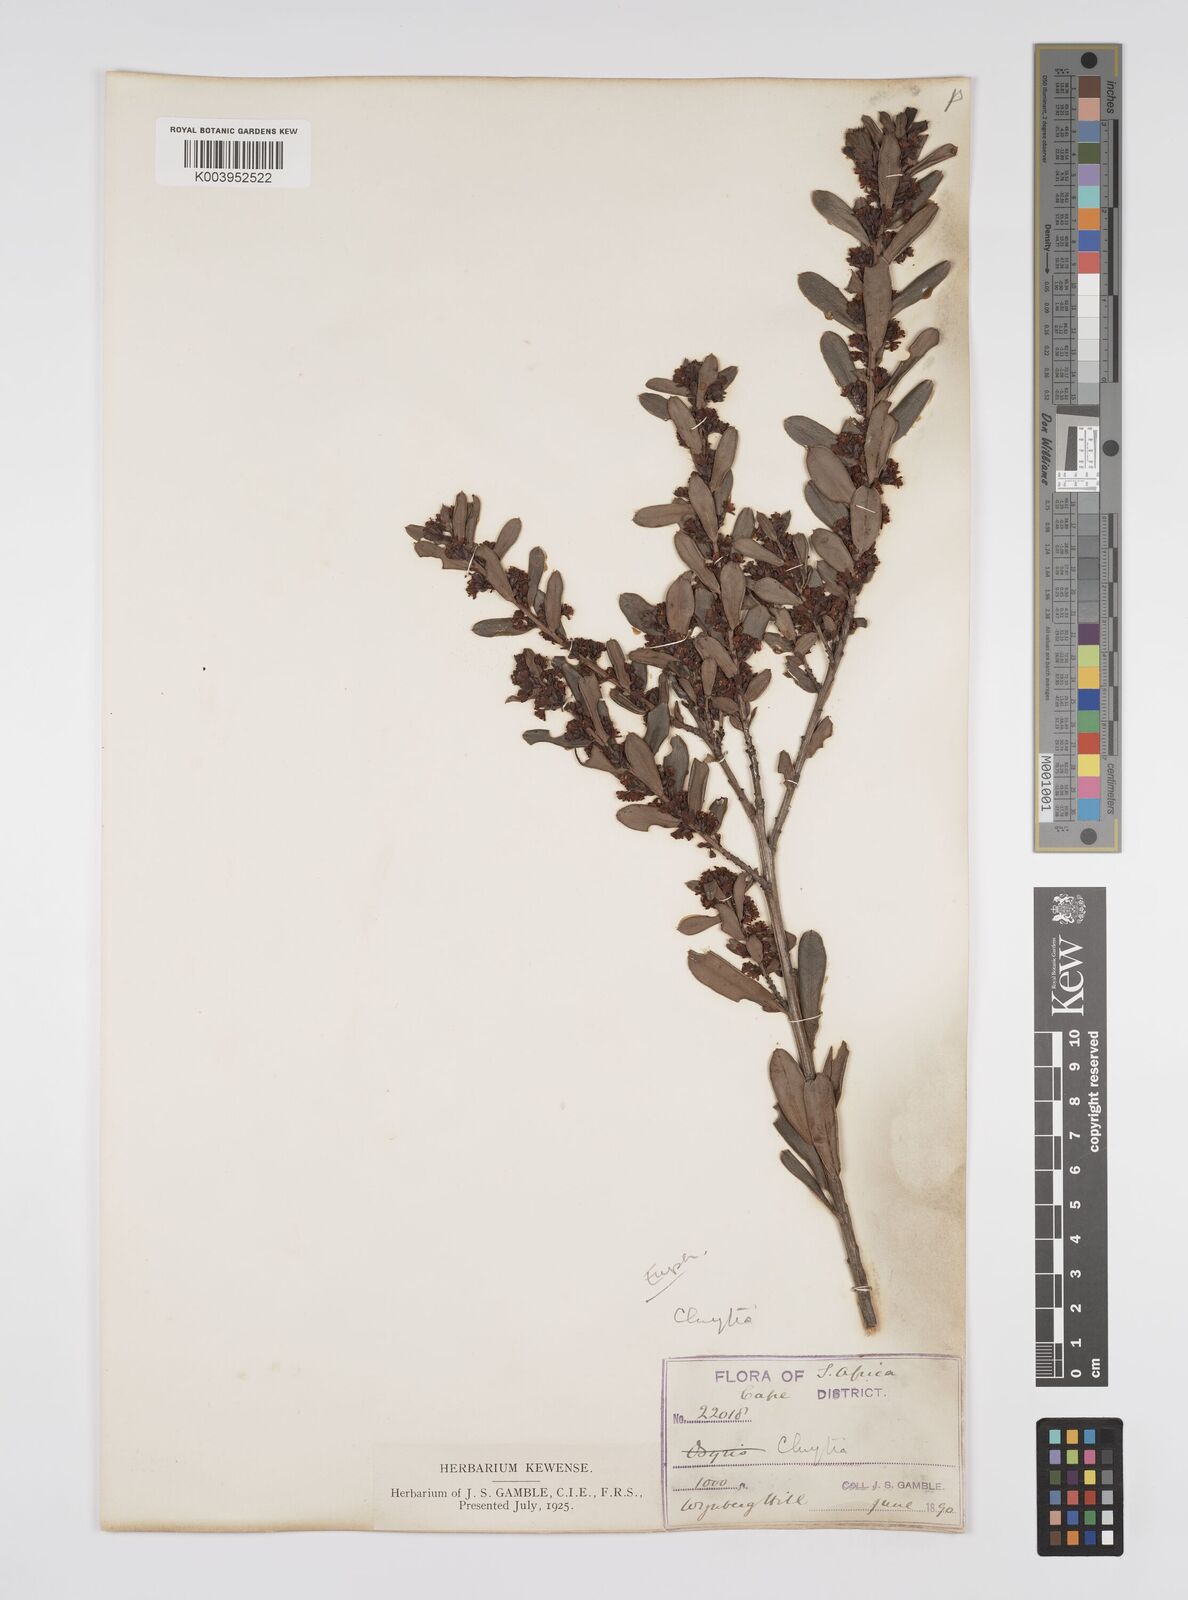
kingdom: Plantae
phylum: Tracheophyta
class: Magnoliopsida
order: Malpighiales
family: Peraceae
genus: Clutia
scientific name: Clutia
